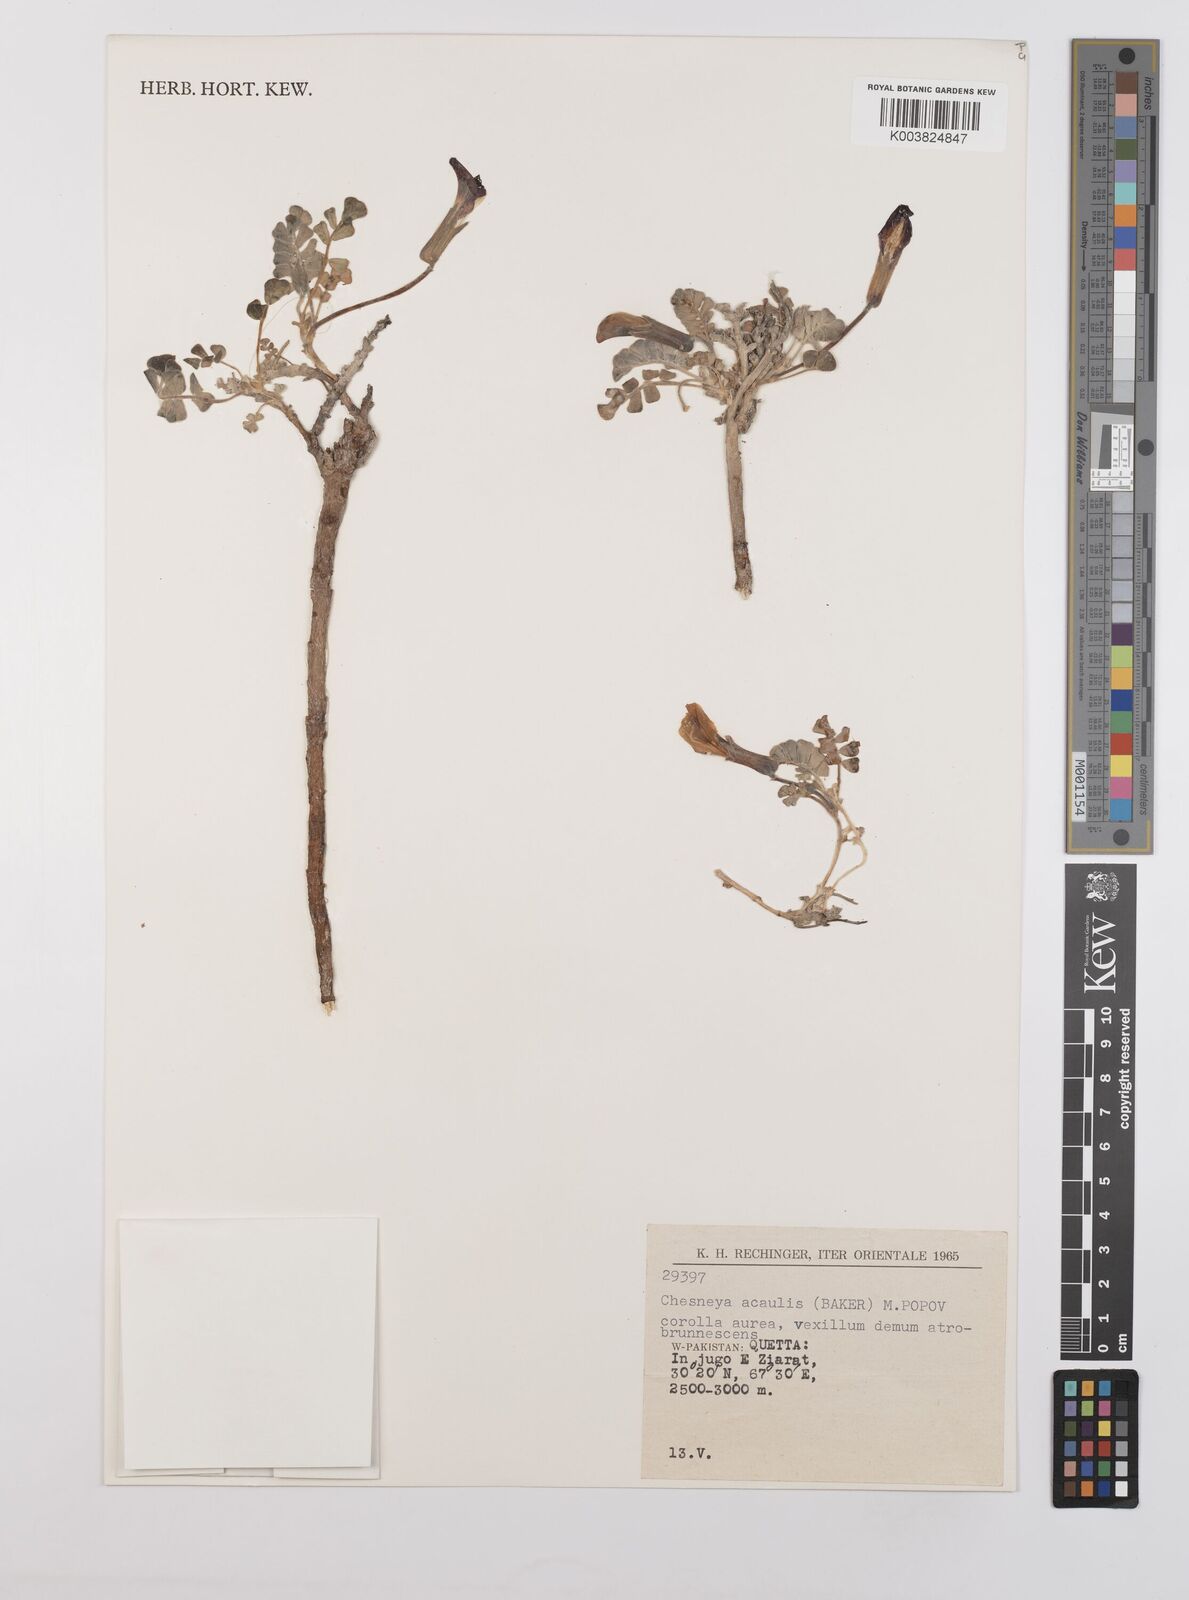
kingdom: Plantae
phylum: Tracheophyta
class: Magnoliopsida
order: Fabales
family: Fabaceae
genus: Chesneya
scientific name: Chesneya acaulis
